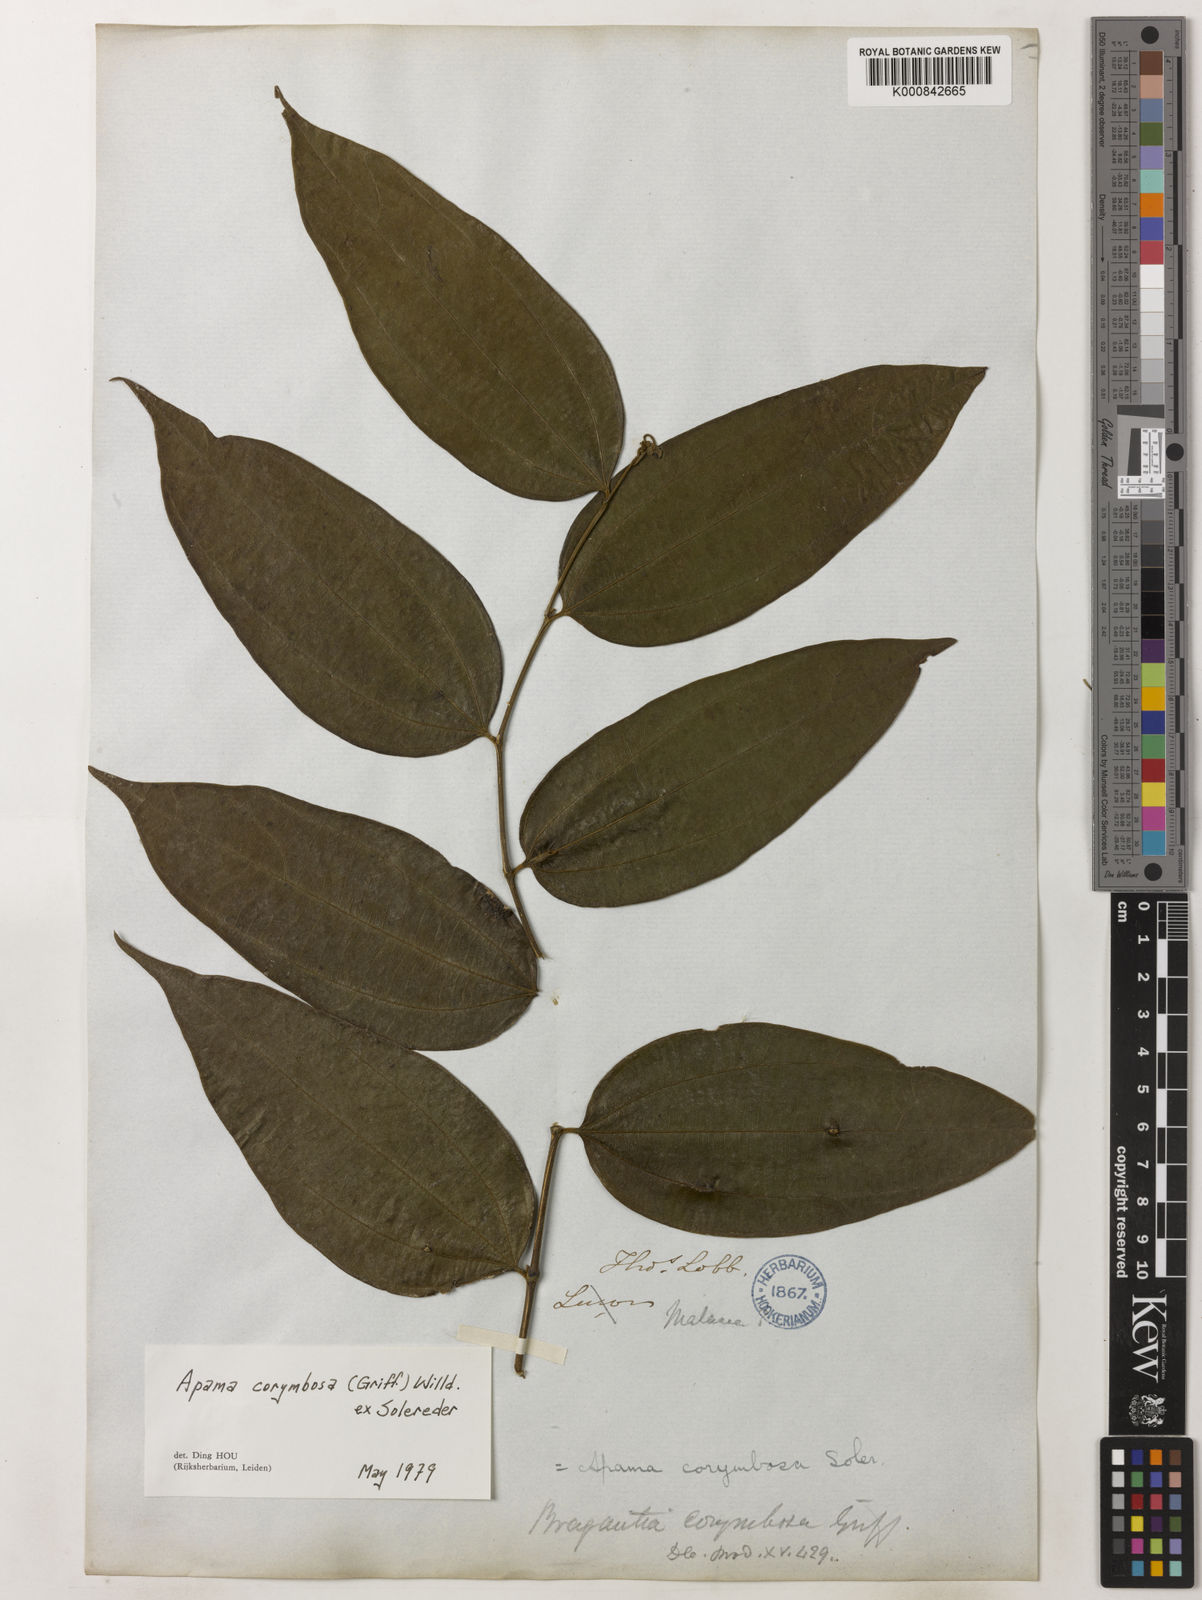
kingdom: Plantae
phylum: Tracheophyta
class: Magnoliopsida
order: Piperales
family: Aristolochiaceae
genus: Thottea
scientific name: Thottea piperiformis
